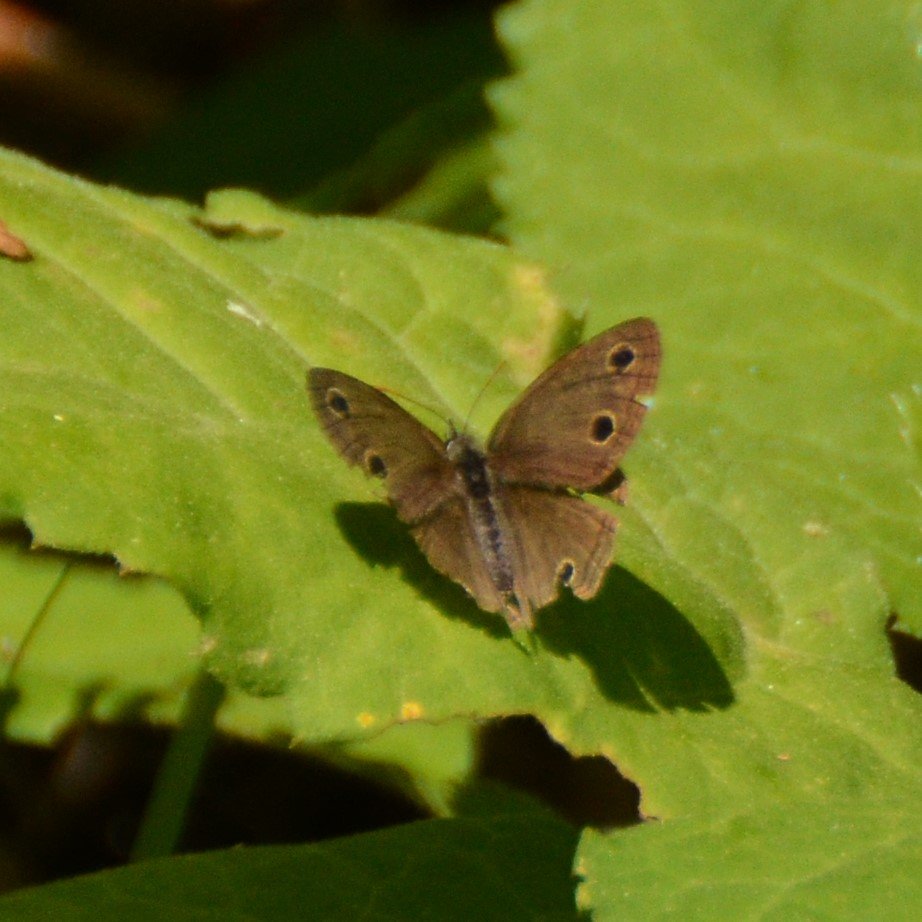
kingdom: Animalia
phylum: Arthropoda
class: Insecta
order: Lepidoptera
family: Nymphalidae
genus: Euptychia
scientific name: Euptychia cymela
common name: Little Wood Satyr
